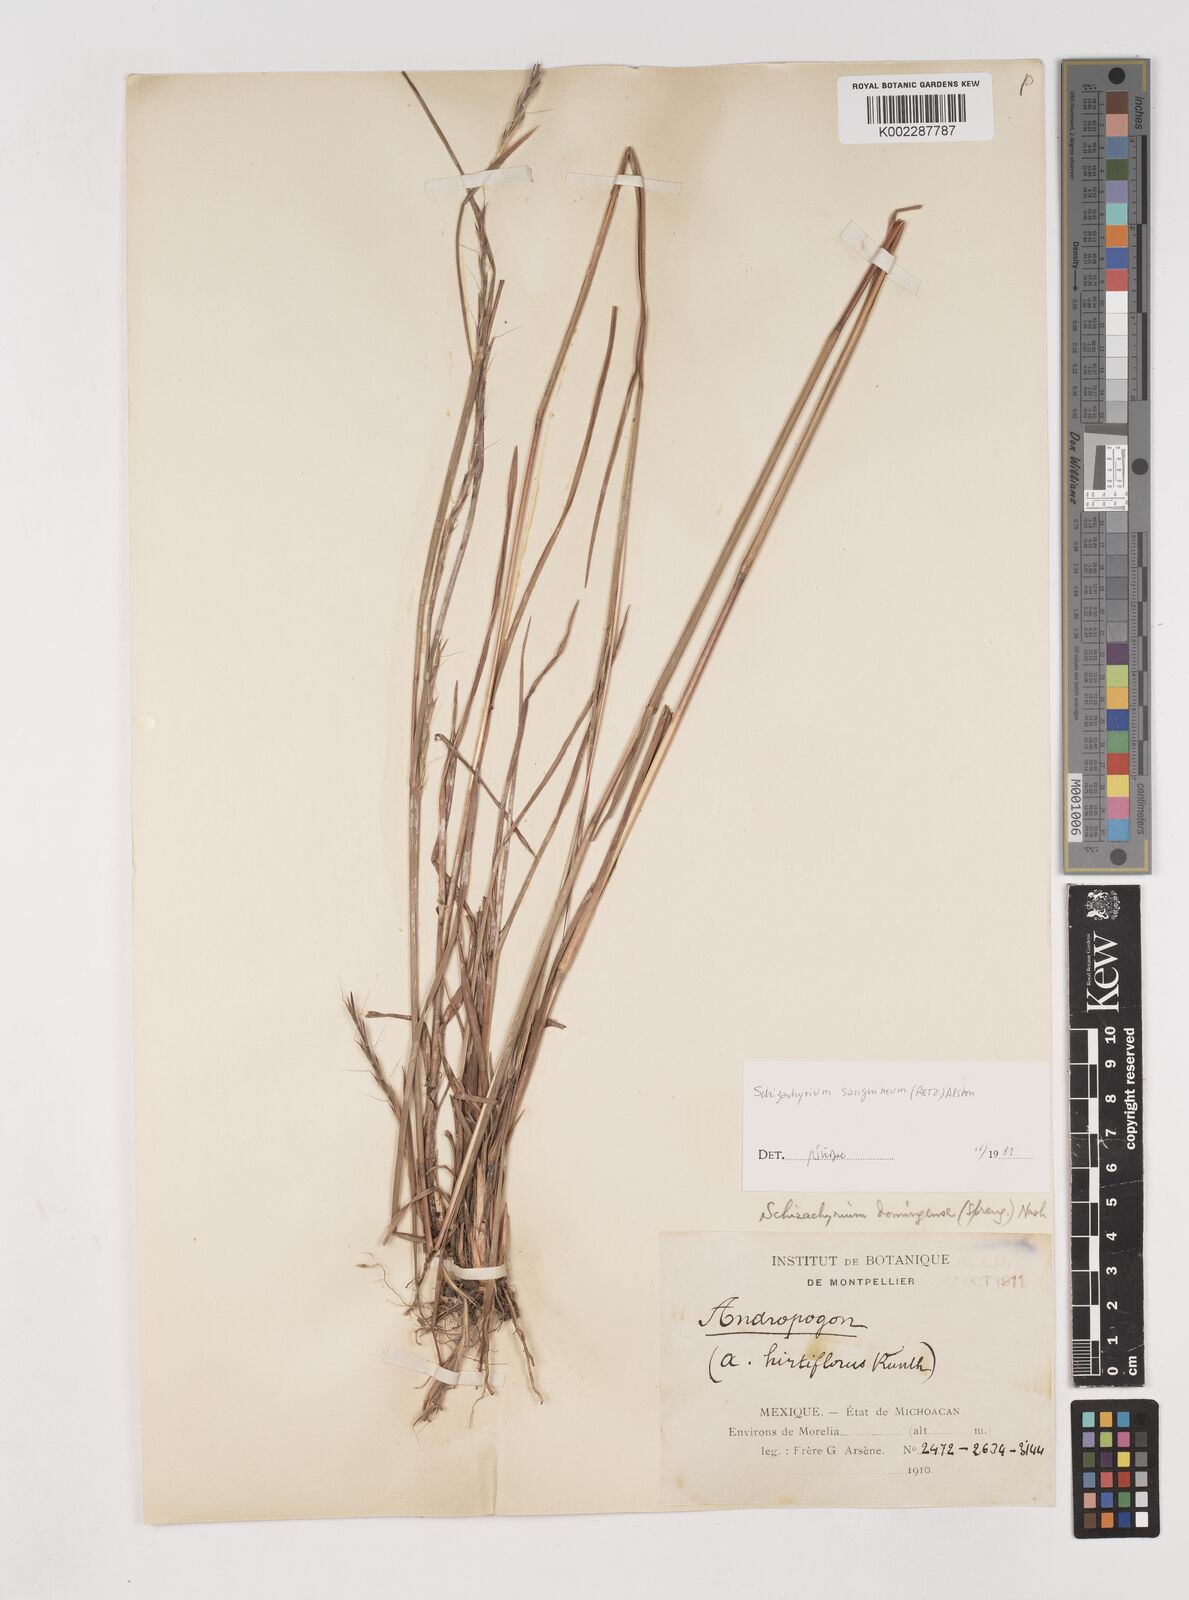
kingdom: Plantae
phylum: Tracheophyta
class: Liliopsida
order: Poales
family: Poaceae
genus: Schizachyrium
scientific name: Schizachyrium sanguineum
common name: Crimson bluestem
